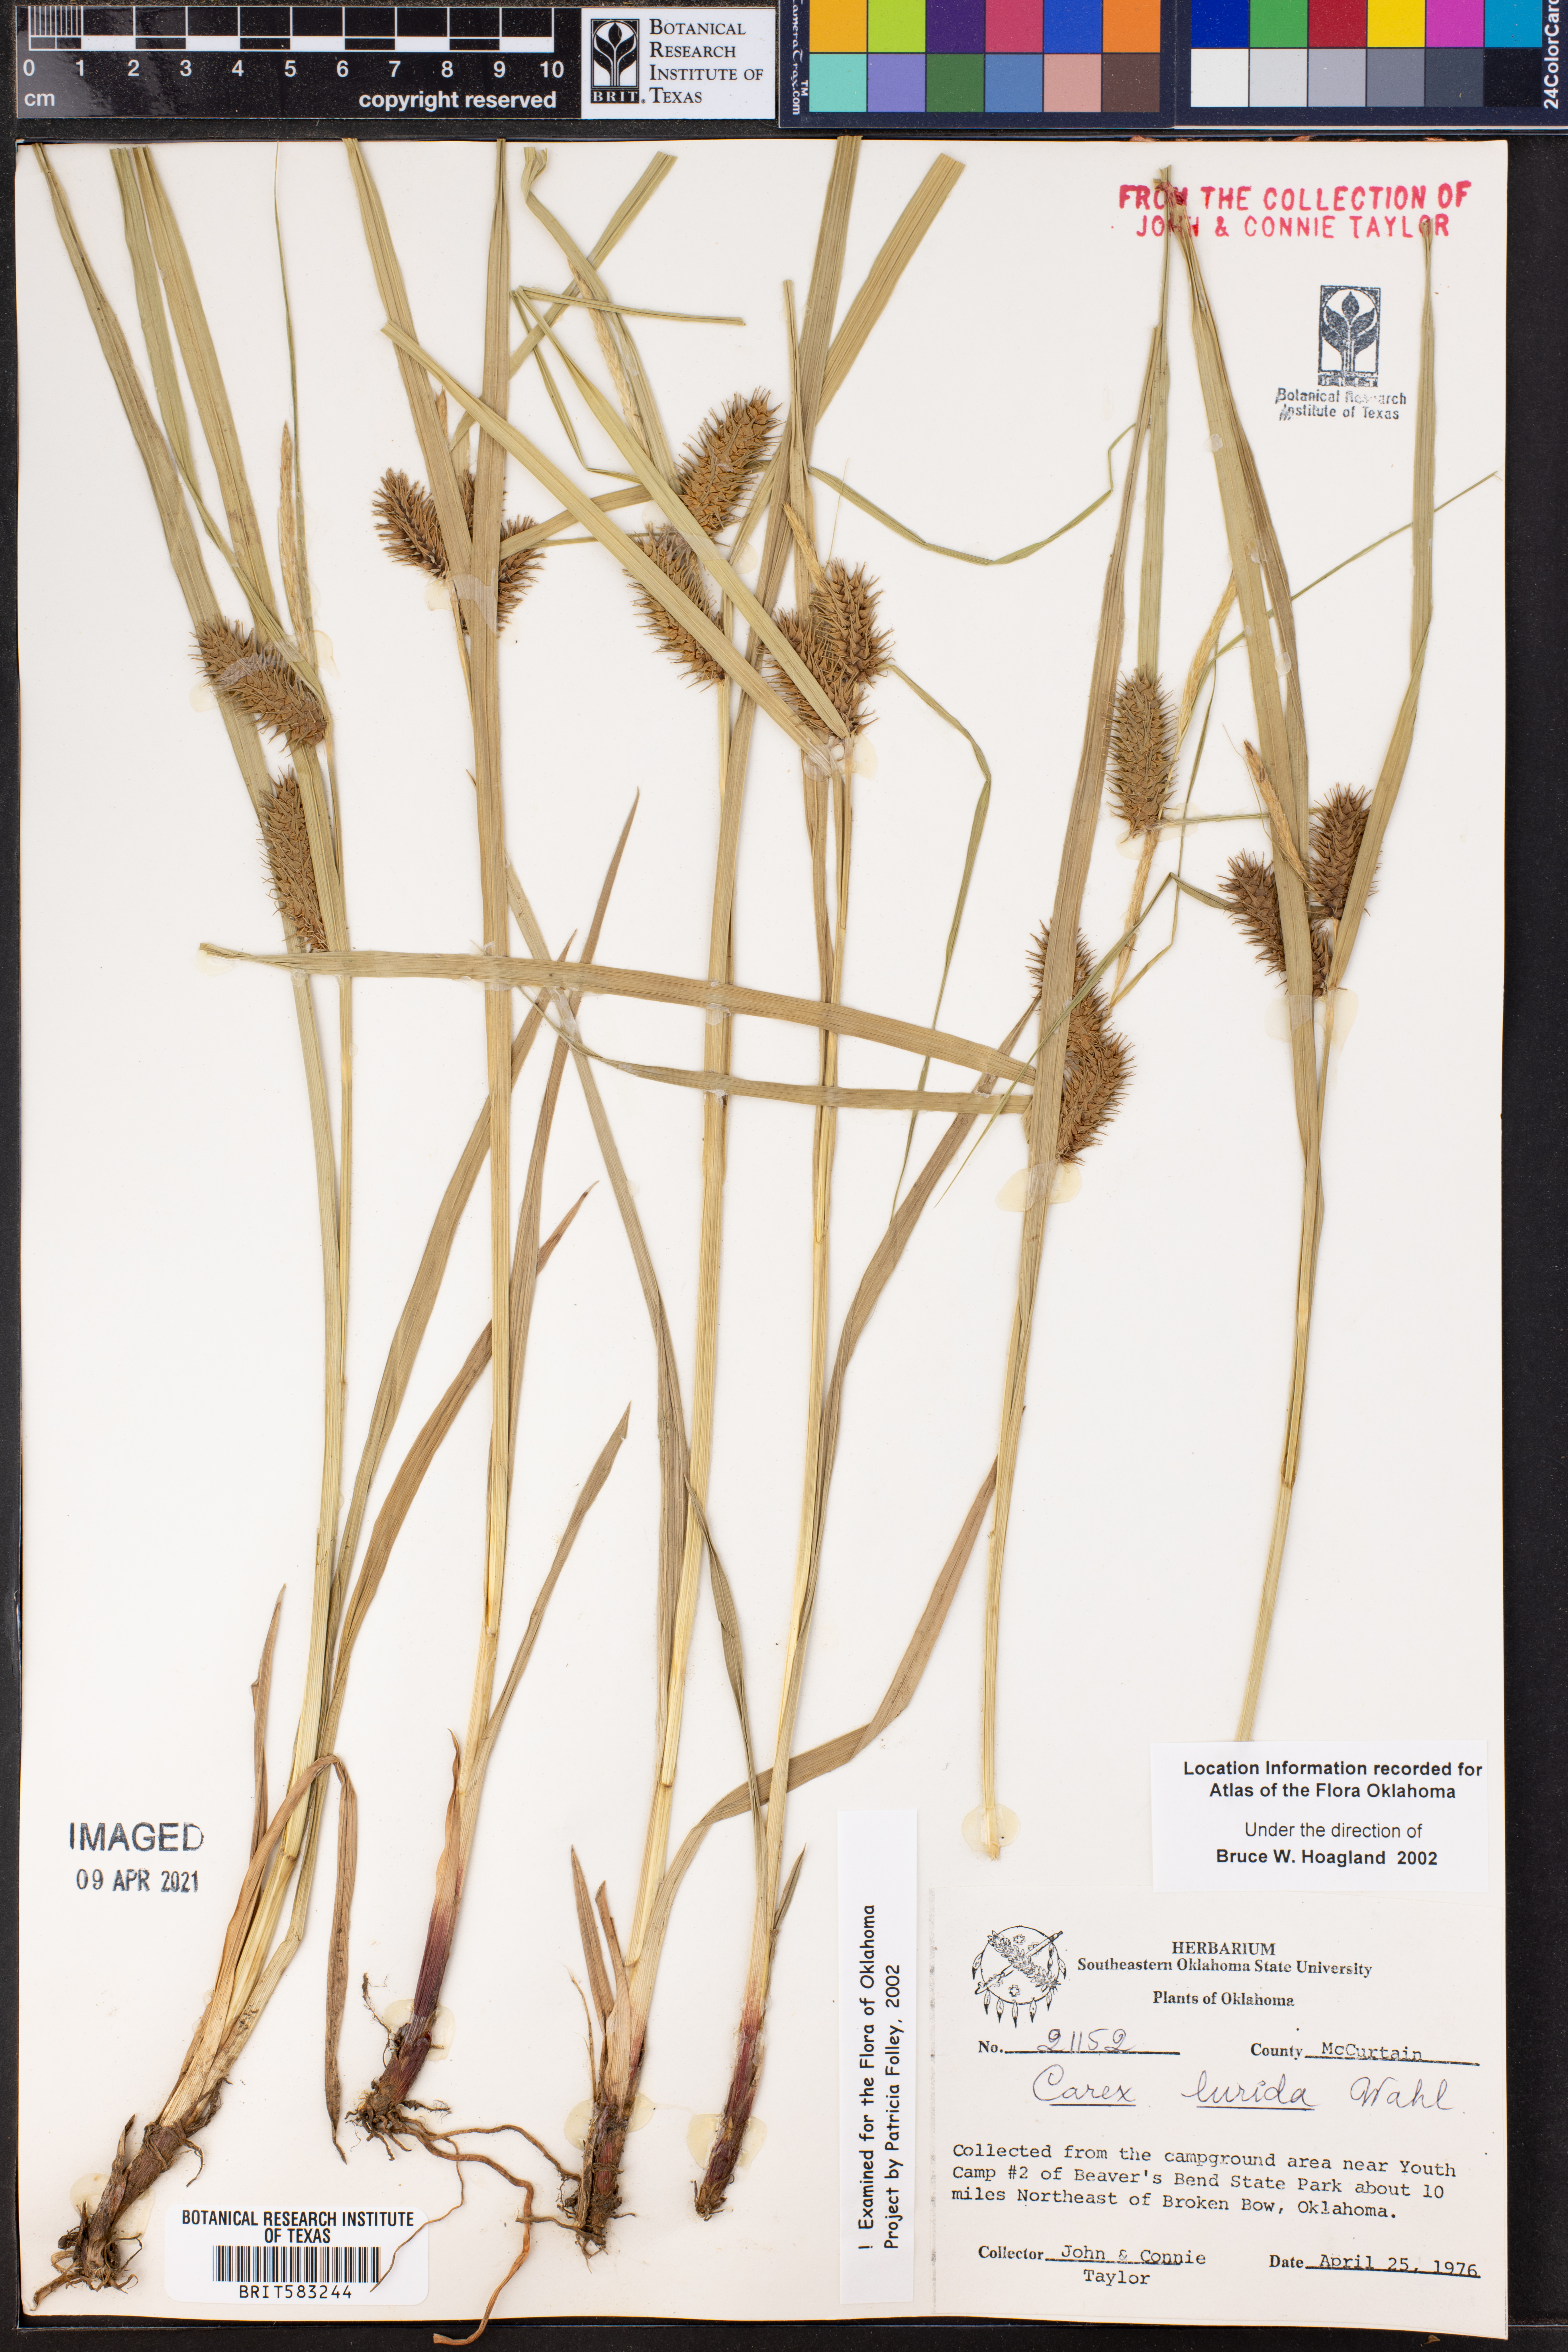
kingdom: Plantae
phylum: Tracheophyta
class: Liliopsida
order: Poales
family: Cyperaceae
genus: Carex
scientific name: Carex lurida
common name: Sallow sedge
